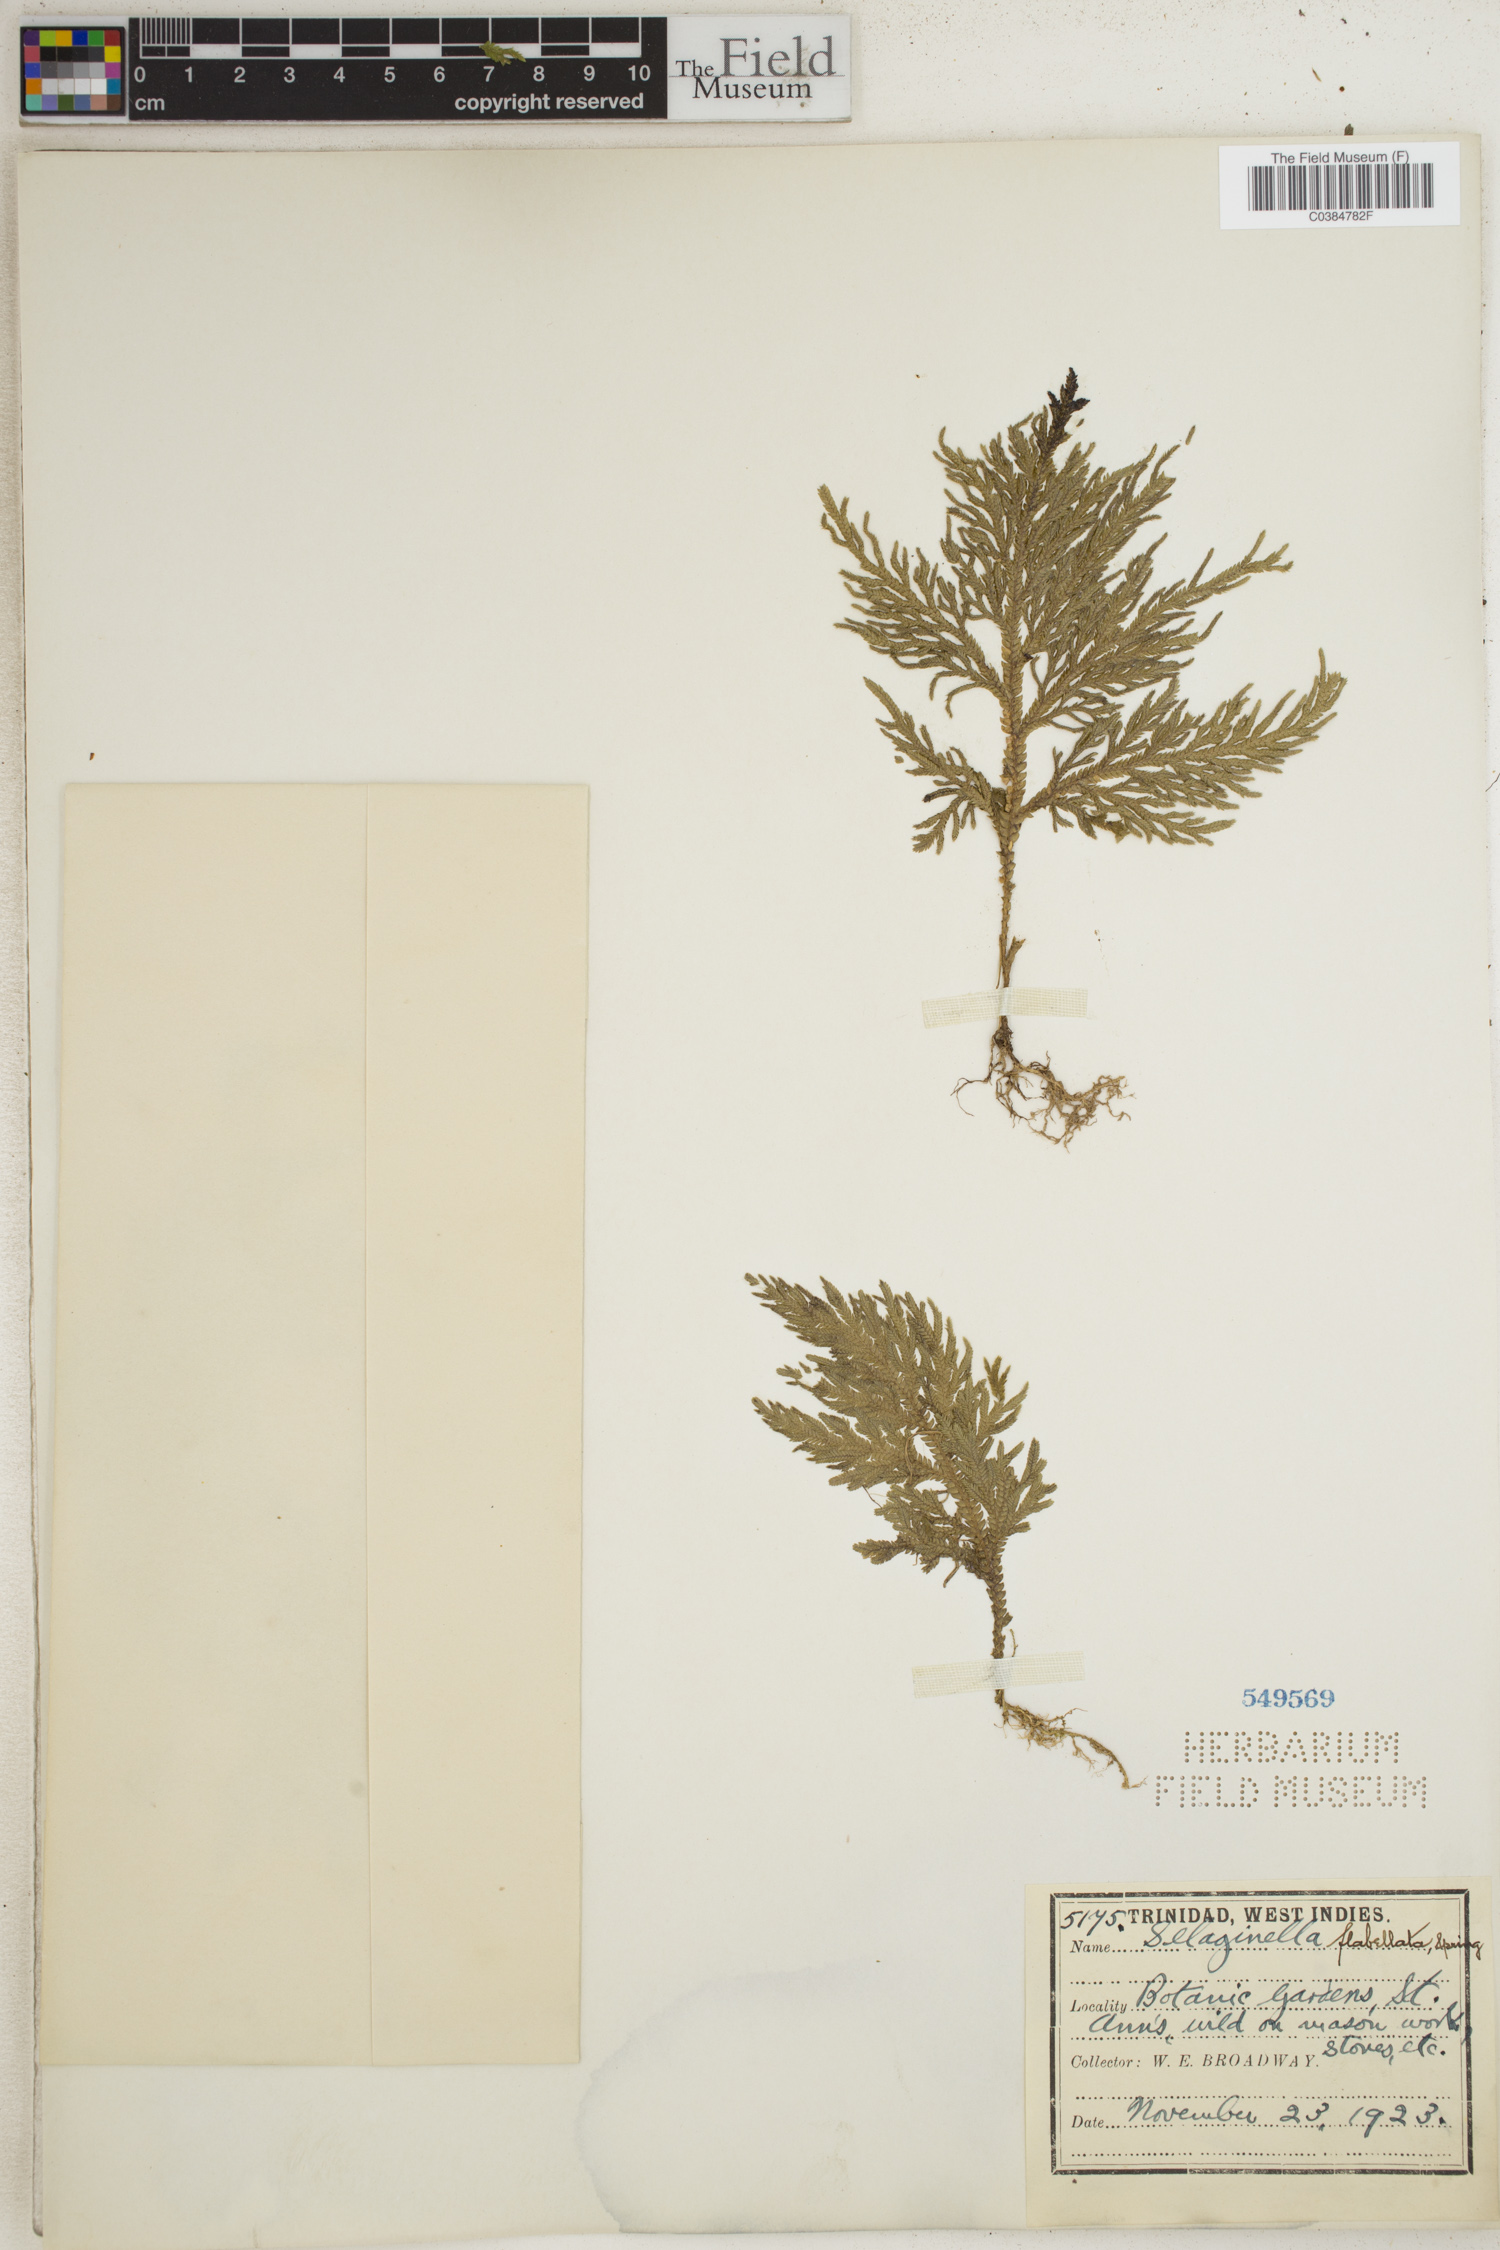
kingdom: Plantae
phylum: Tracheophyta
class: Lycopodiopsida
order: Selaginellales
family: Selaginellaceae
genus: Selaginella
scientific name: Selaginella flabellata
